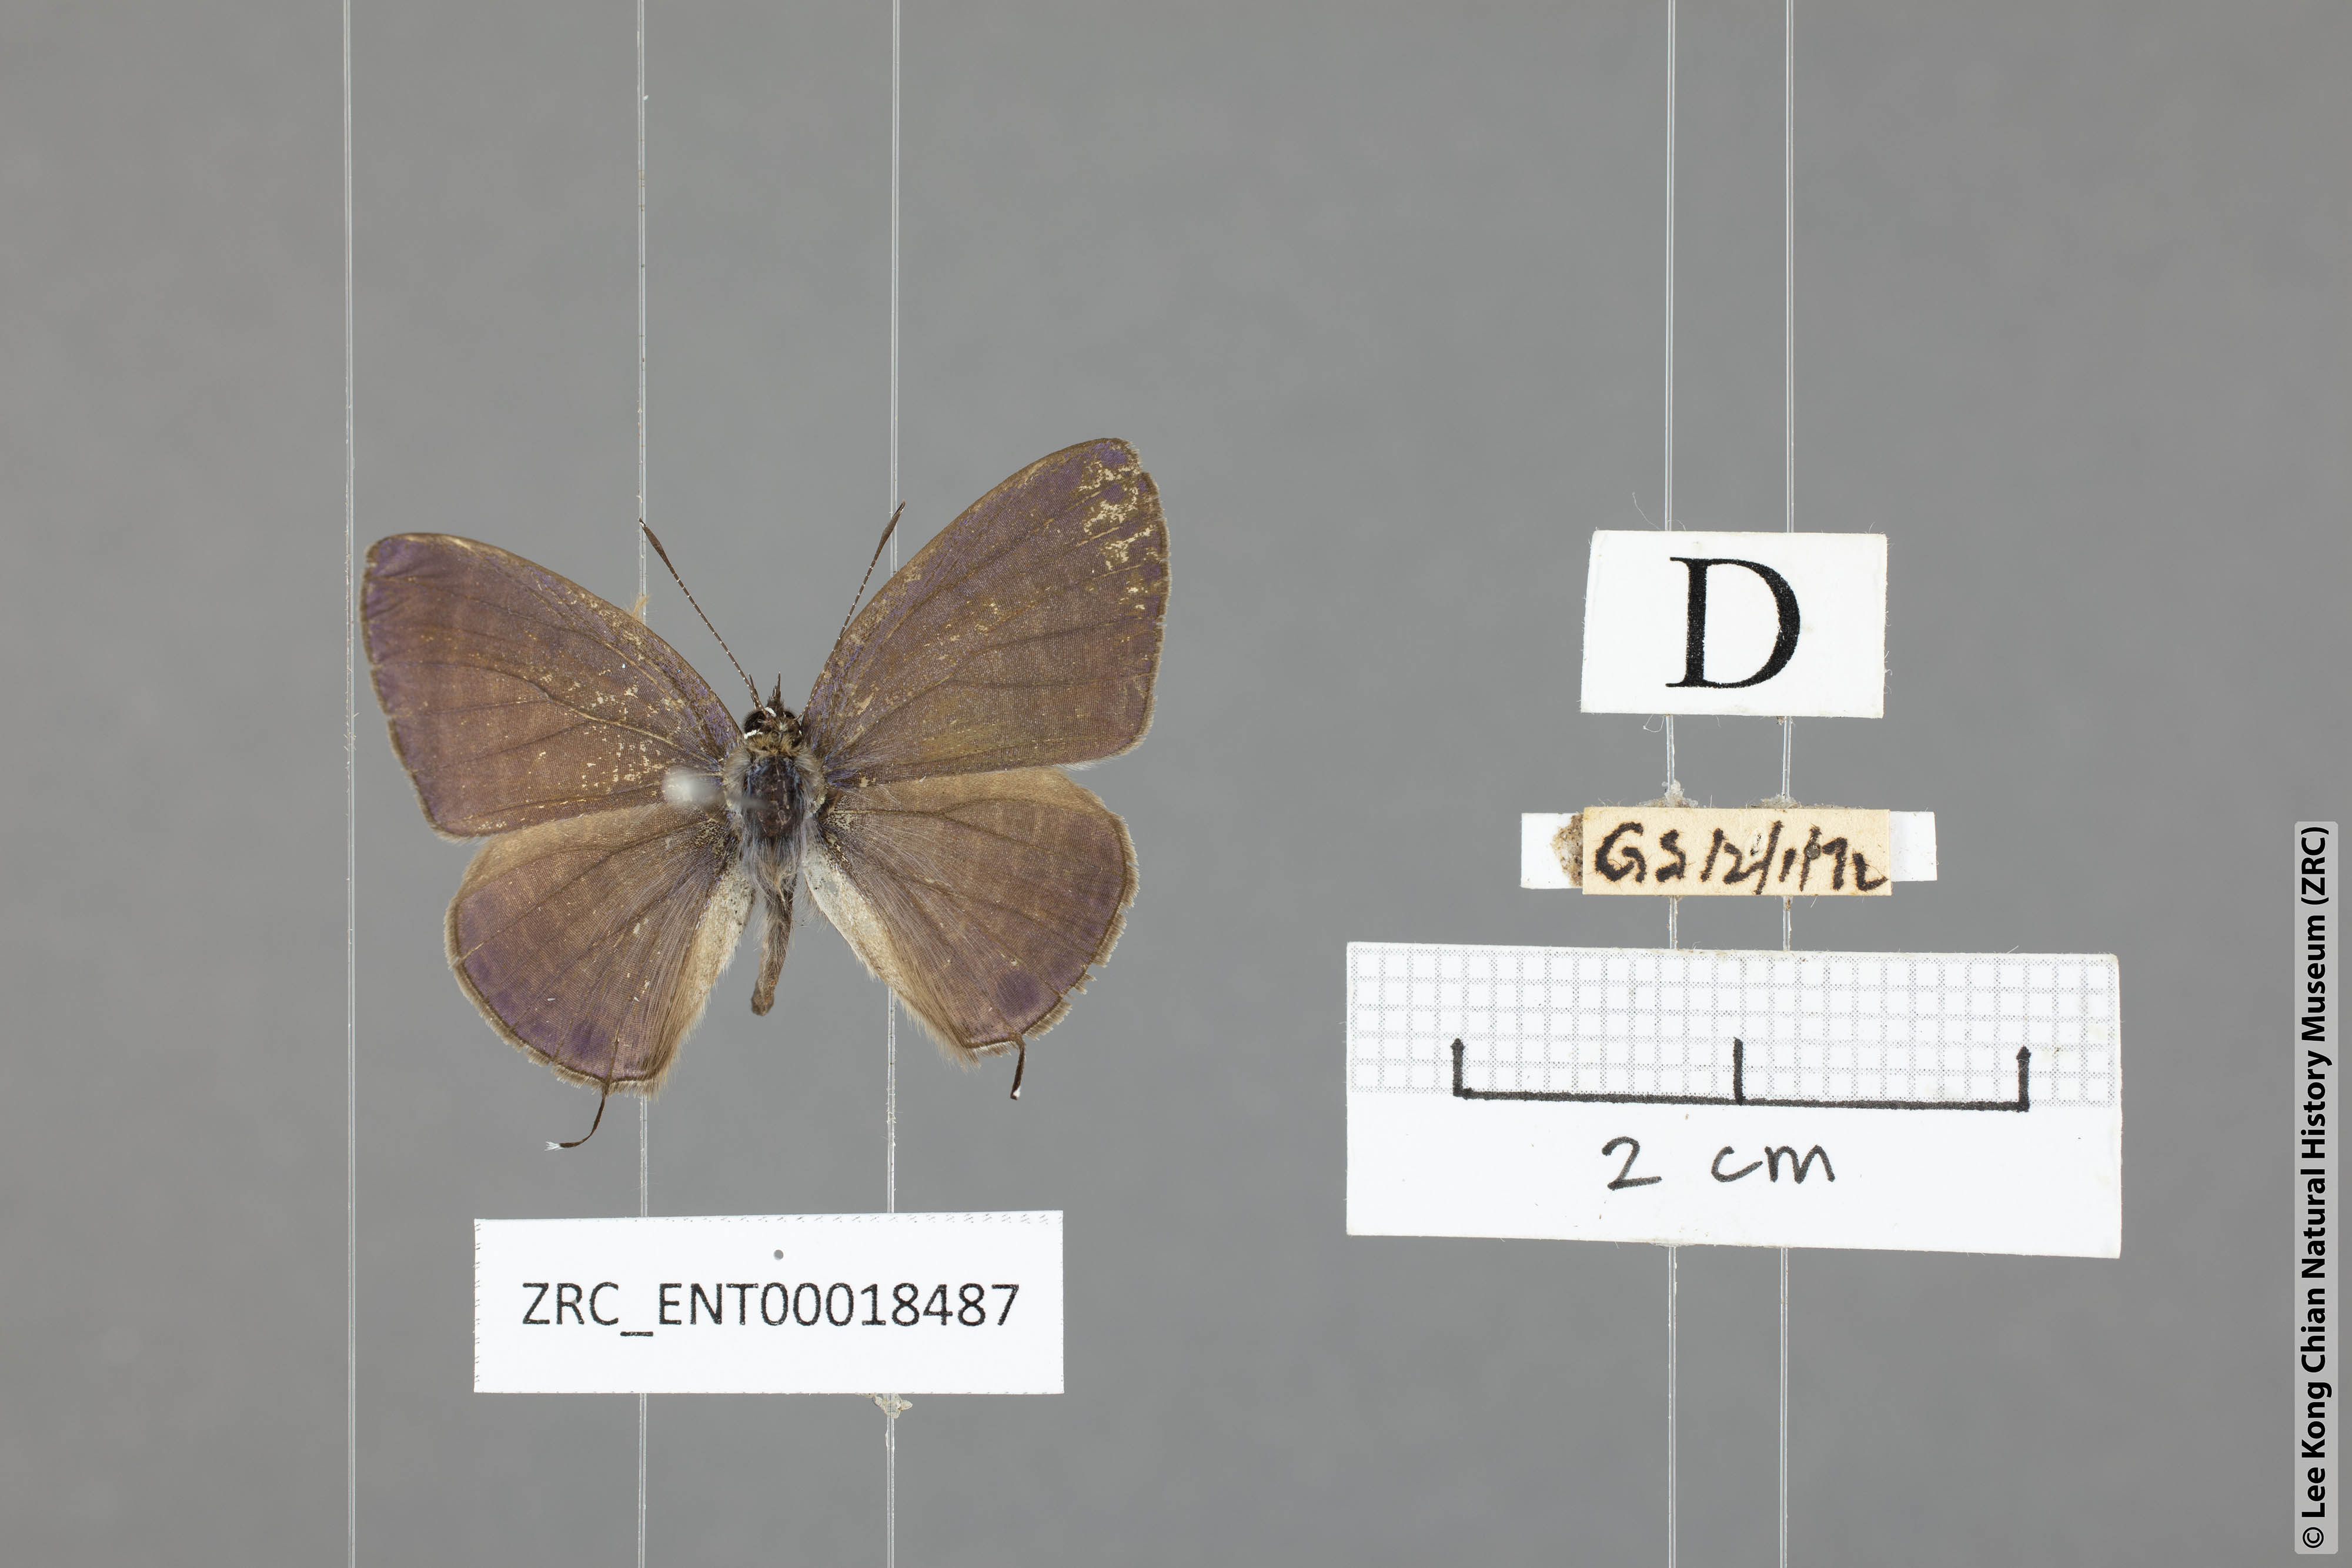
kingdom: Animalia
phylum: Arthropoda
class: Insecta
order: Lepidoptera
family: Lycaenidae
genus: Nacaduba
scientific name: Nacaduba subperusia
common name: Violet fourline blue
